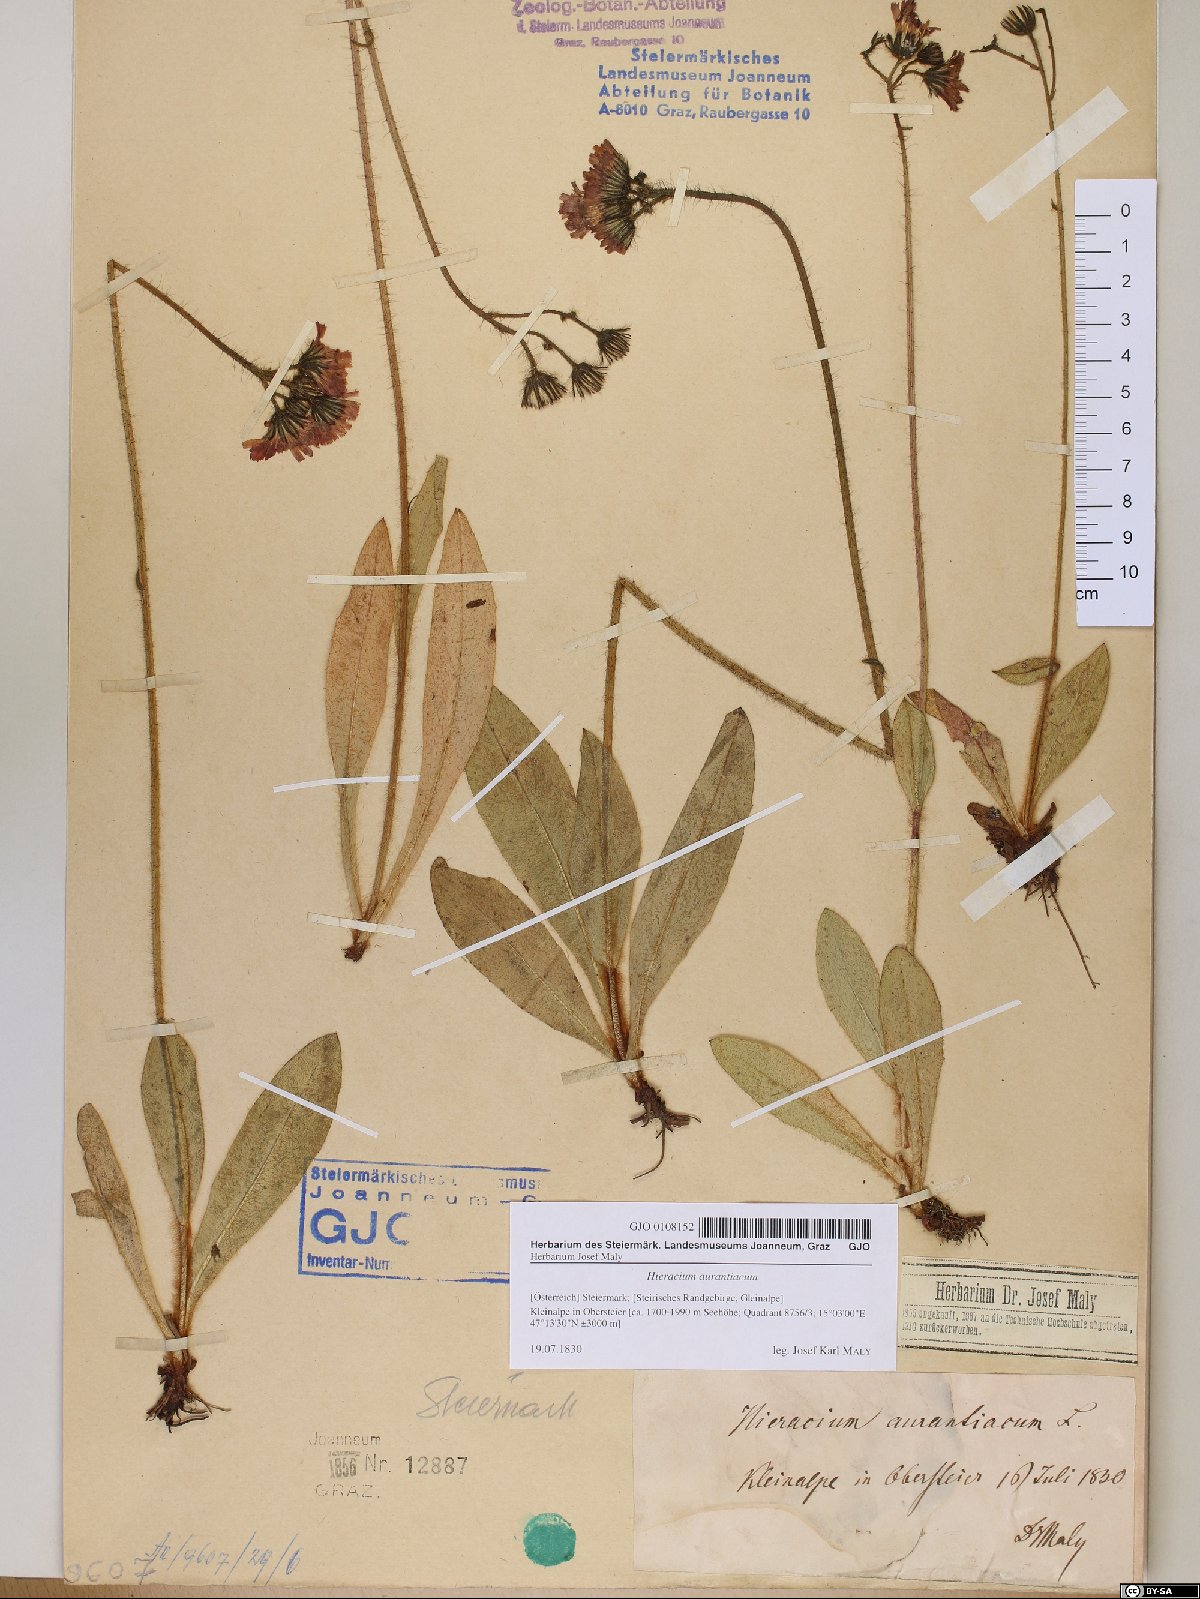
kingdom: Plantae
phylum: Tracheophyta
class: Magnoliopsida
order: Asterales
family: Asteraceae
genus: Pilosella
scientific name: Pilosella aurantiaca
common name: Fox-and-cubs
